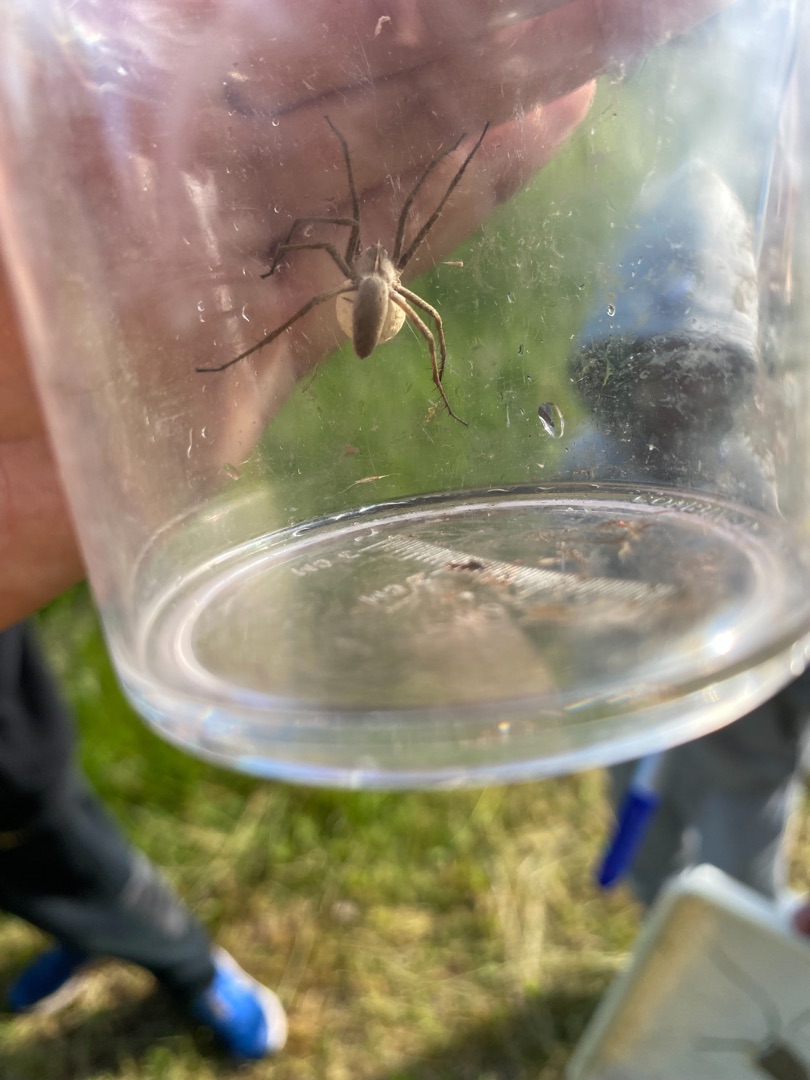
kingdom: Animalia
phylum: Arthropoda
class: Arachnida
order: Araneae
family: Pisauridae
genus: Pisaura
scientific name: Pisaura mirabilis
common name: Almindelig rovedderkop
